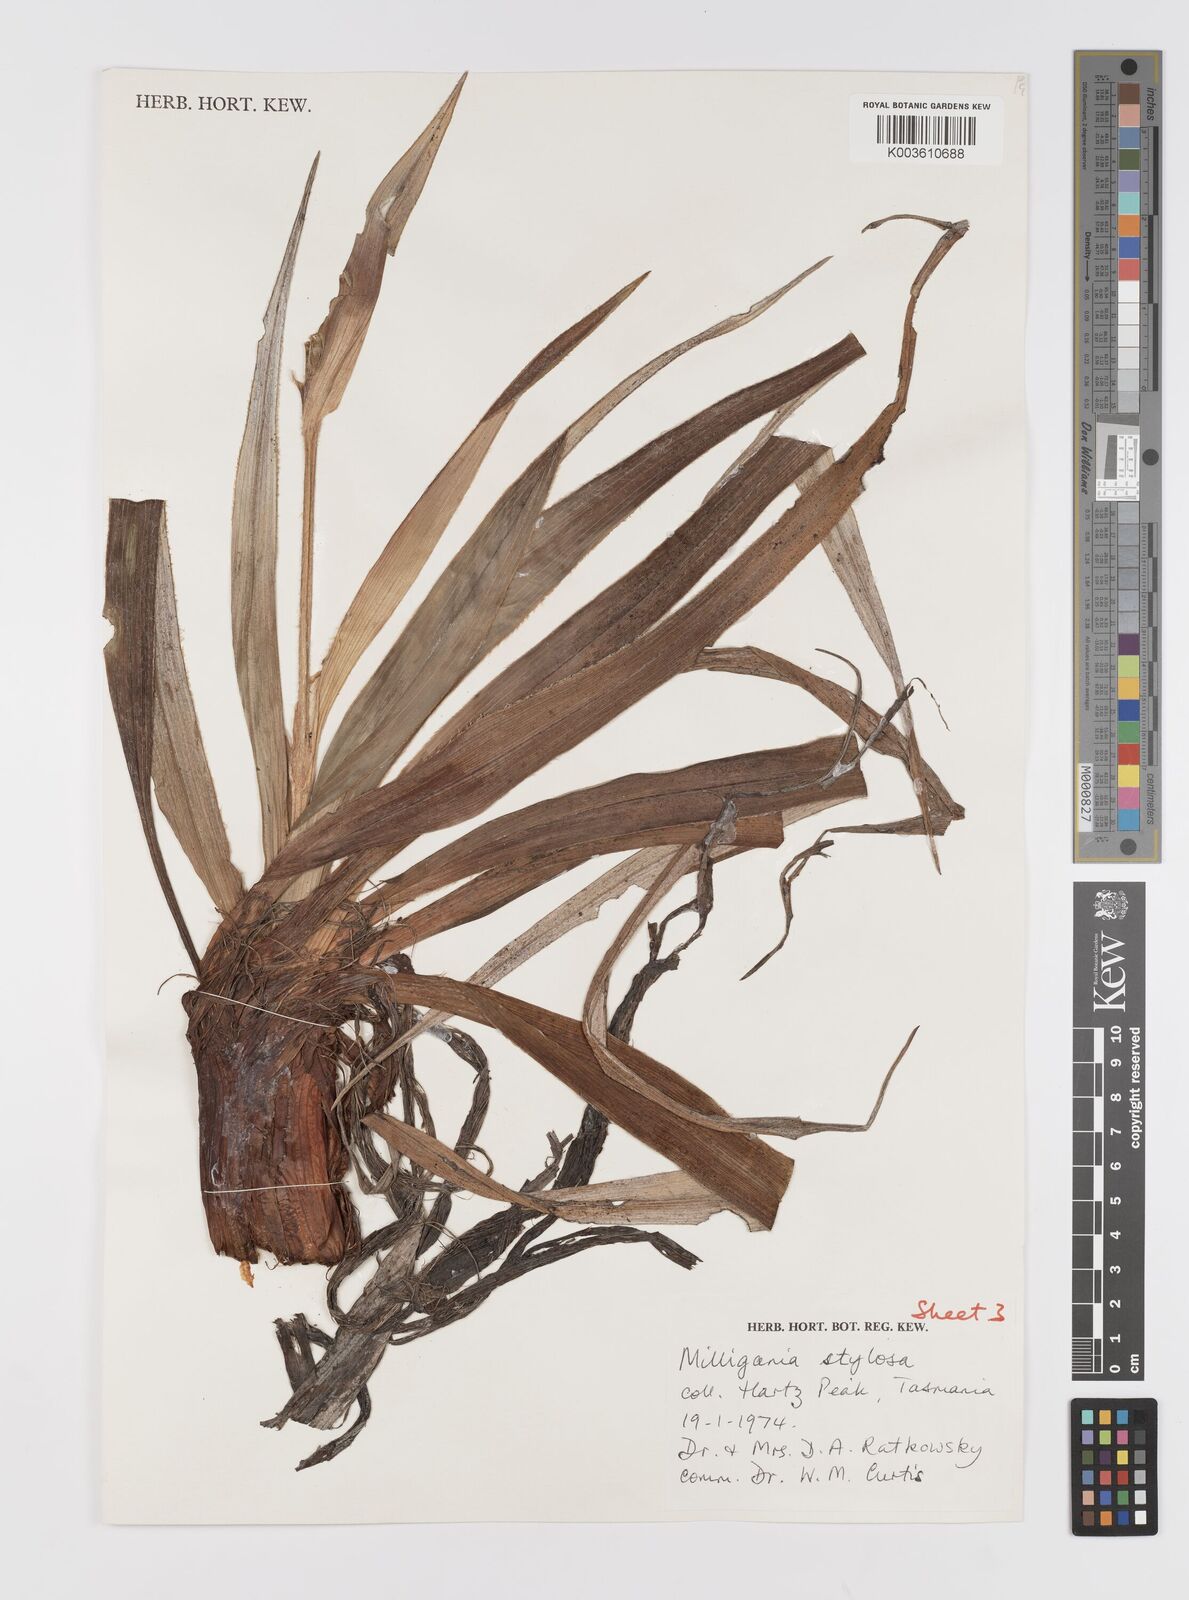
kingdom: Plantae
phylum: Tracheophyta
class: Liliopsida
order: Asparagales
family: Asteliaceae
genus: Milligania
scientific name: Milligania stylosa
